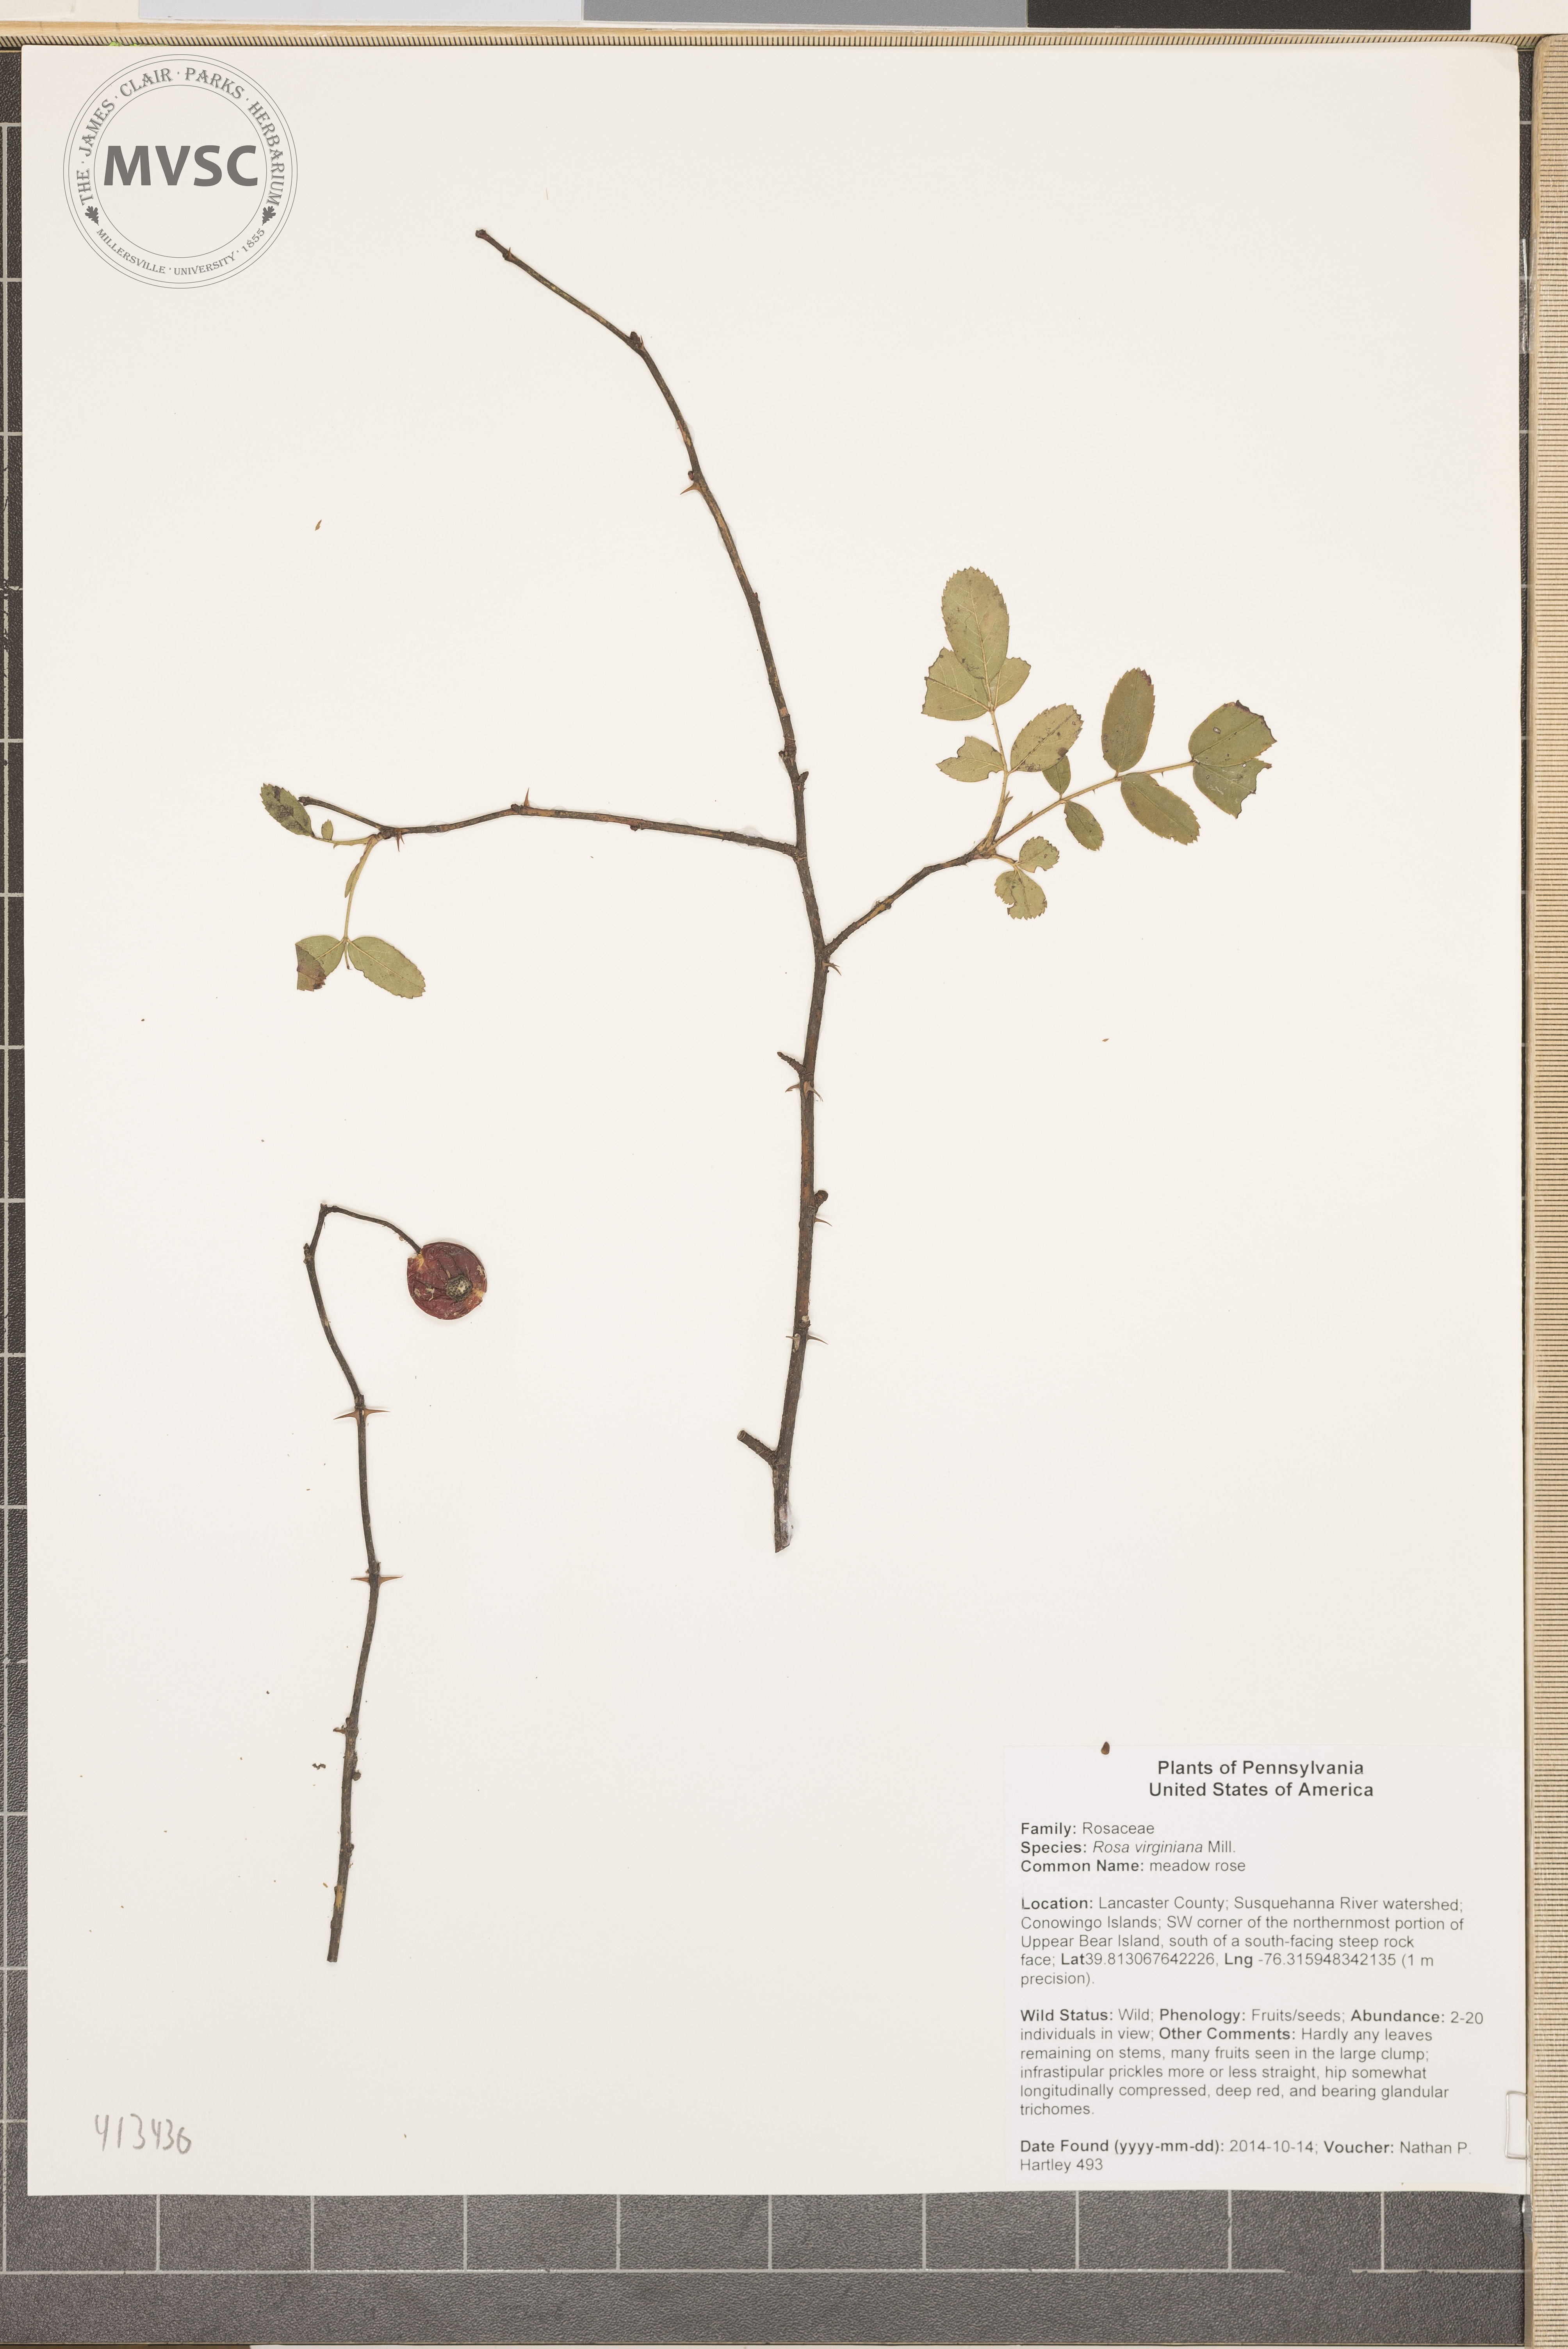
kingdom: Plantae
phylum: Tracheophyta
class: Magnoliopsida
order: Rosales
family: Rosaceae
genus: Rosa
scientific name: Rosa carolina
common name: meadow rose
